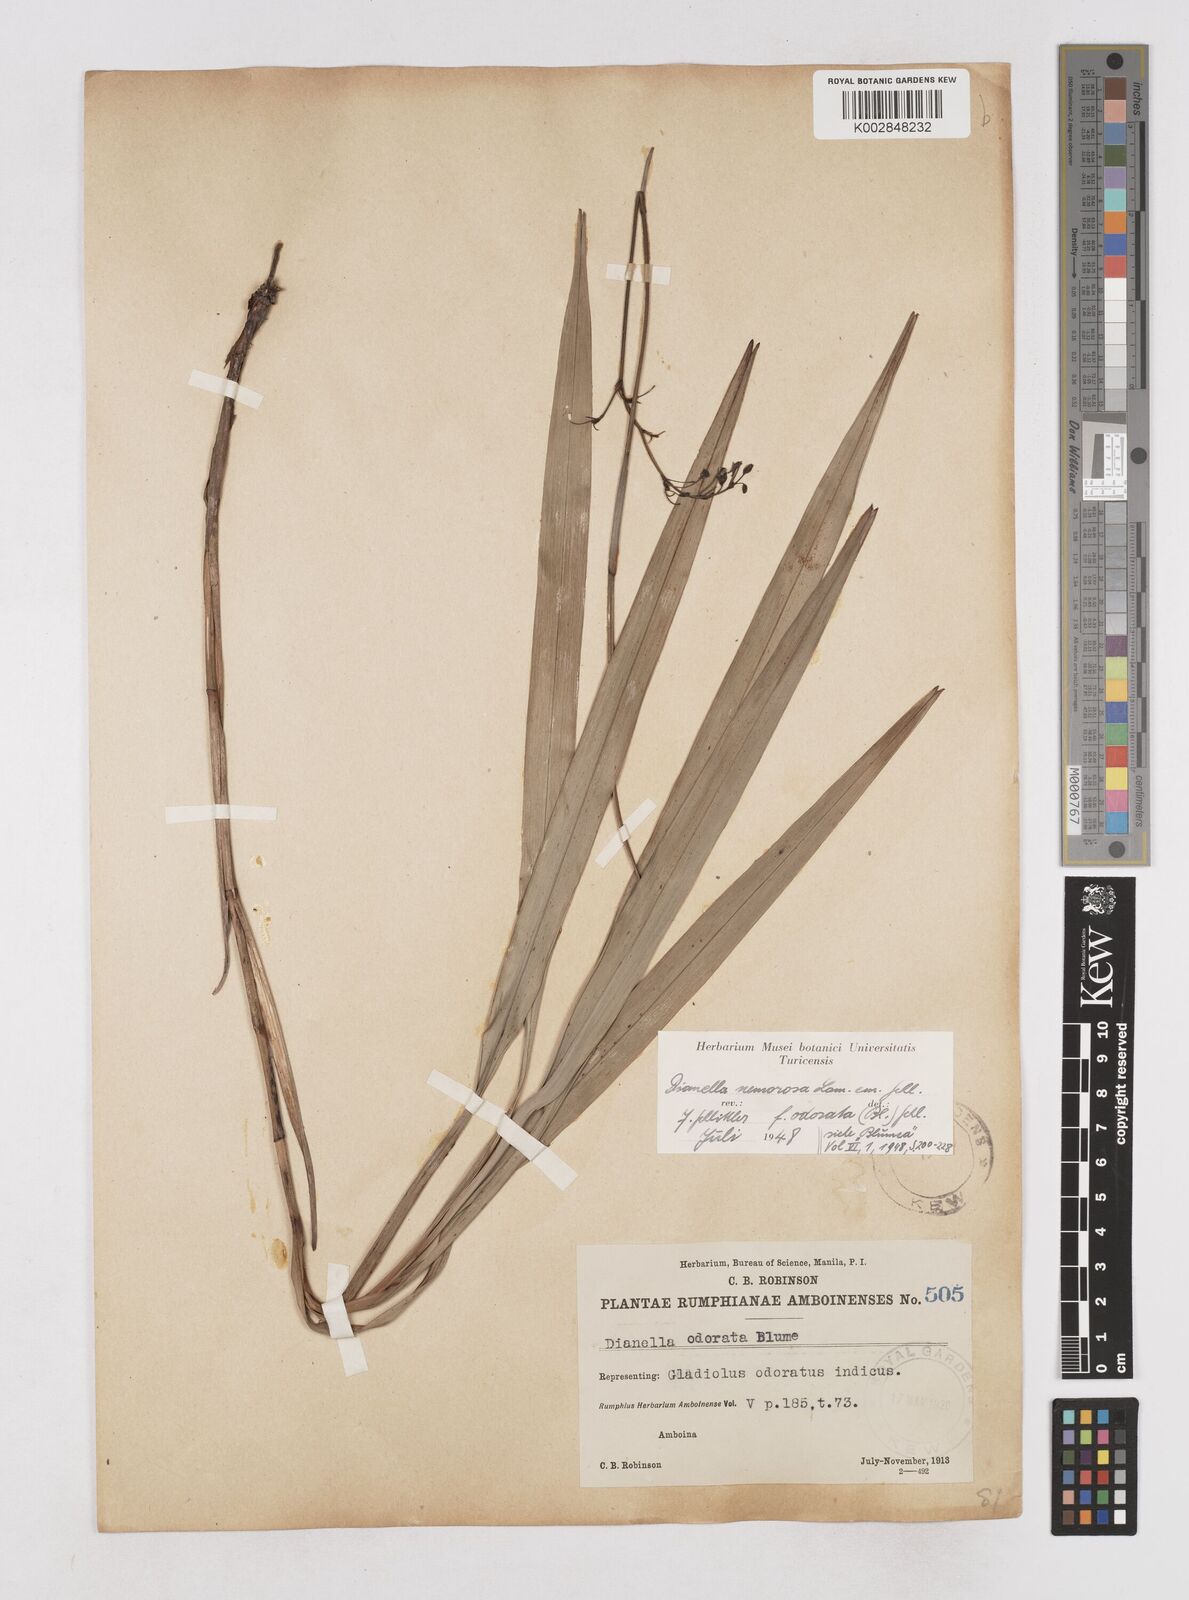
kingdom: Plantae
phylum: Tracheophyta
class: Liliopsida
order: Asparagales
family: Asphodelaceae
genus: Dianella
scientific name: Dianella ensifolia
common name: New zealand lilyplant
